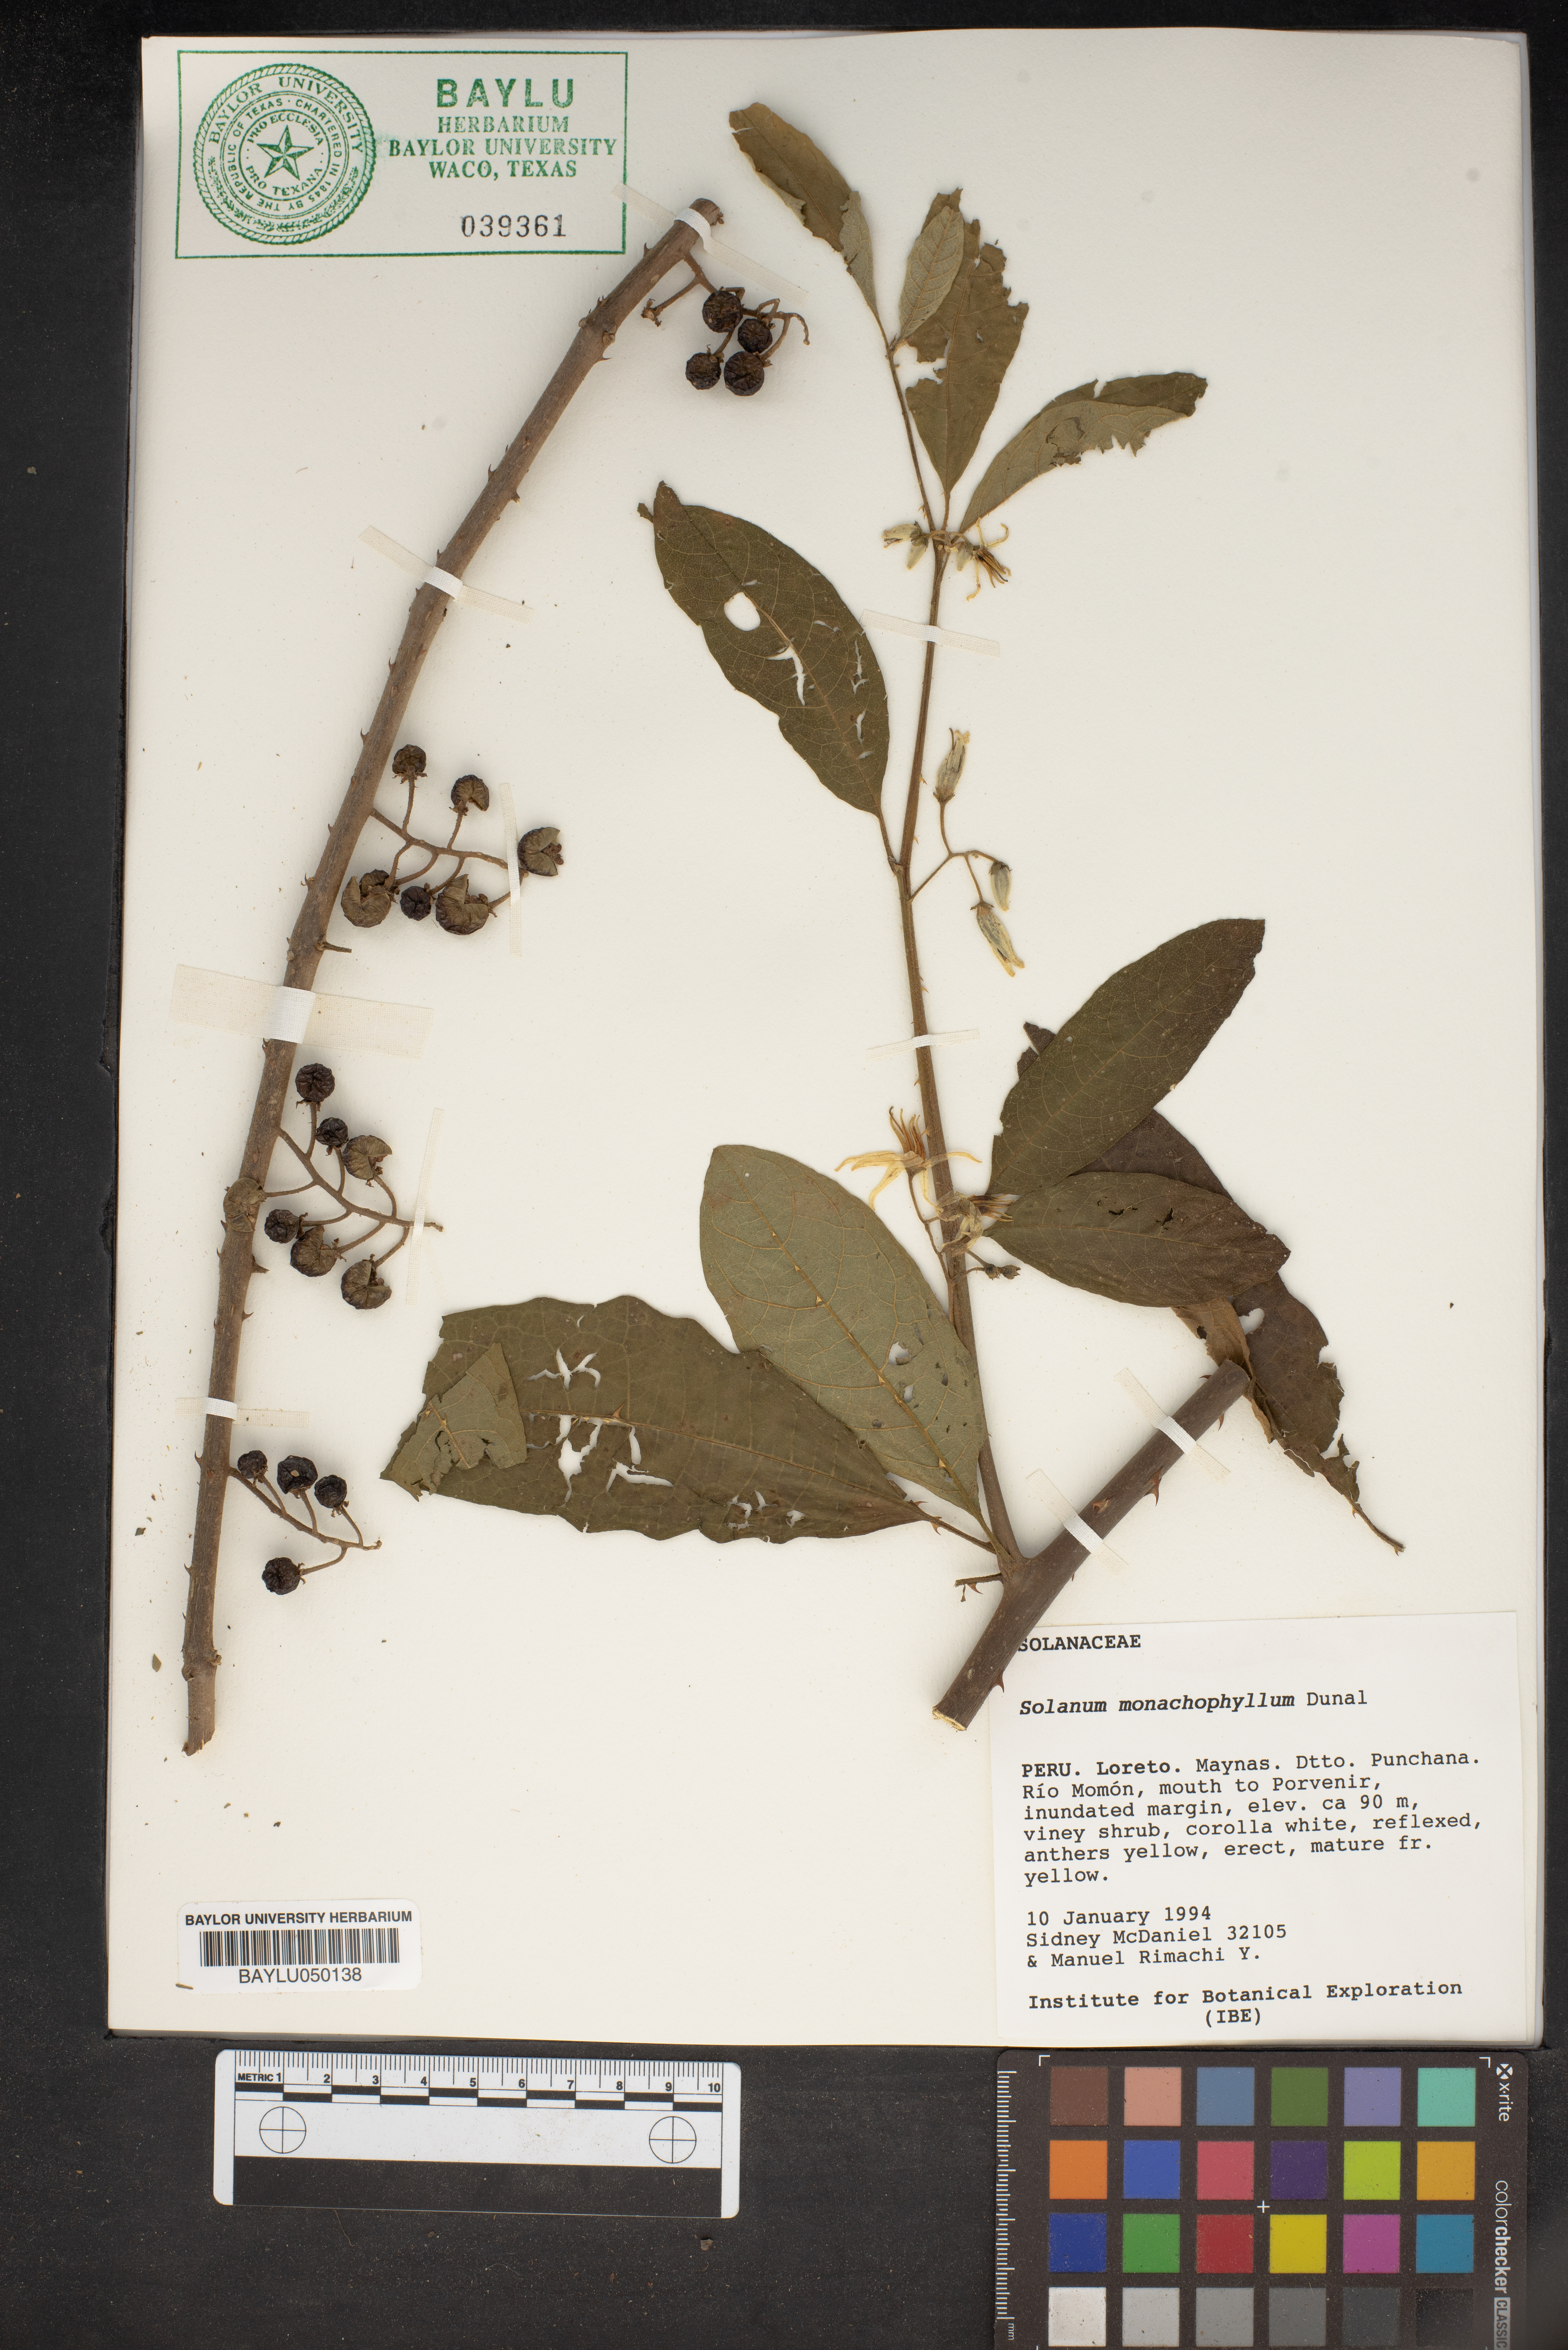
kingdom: Plantae
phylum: Tracheophyta
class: Magnoliopsida
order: Solanales
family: Solanaceae
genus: Solanum
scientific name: Solanum monachophyllum
